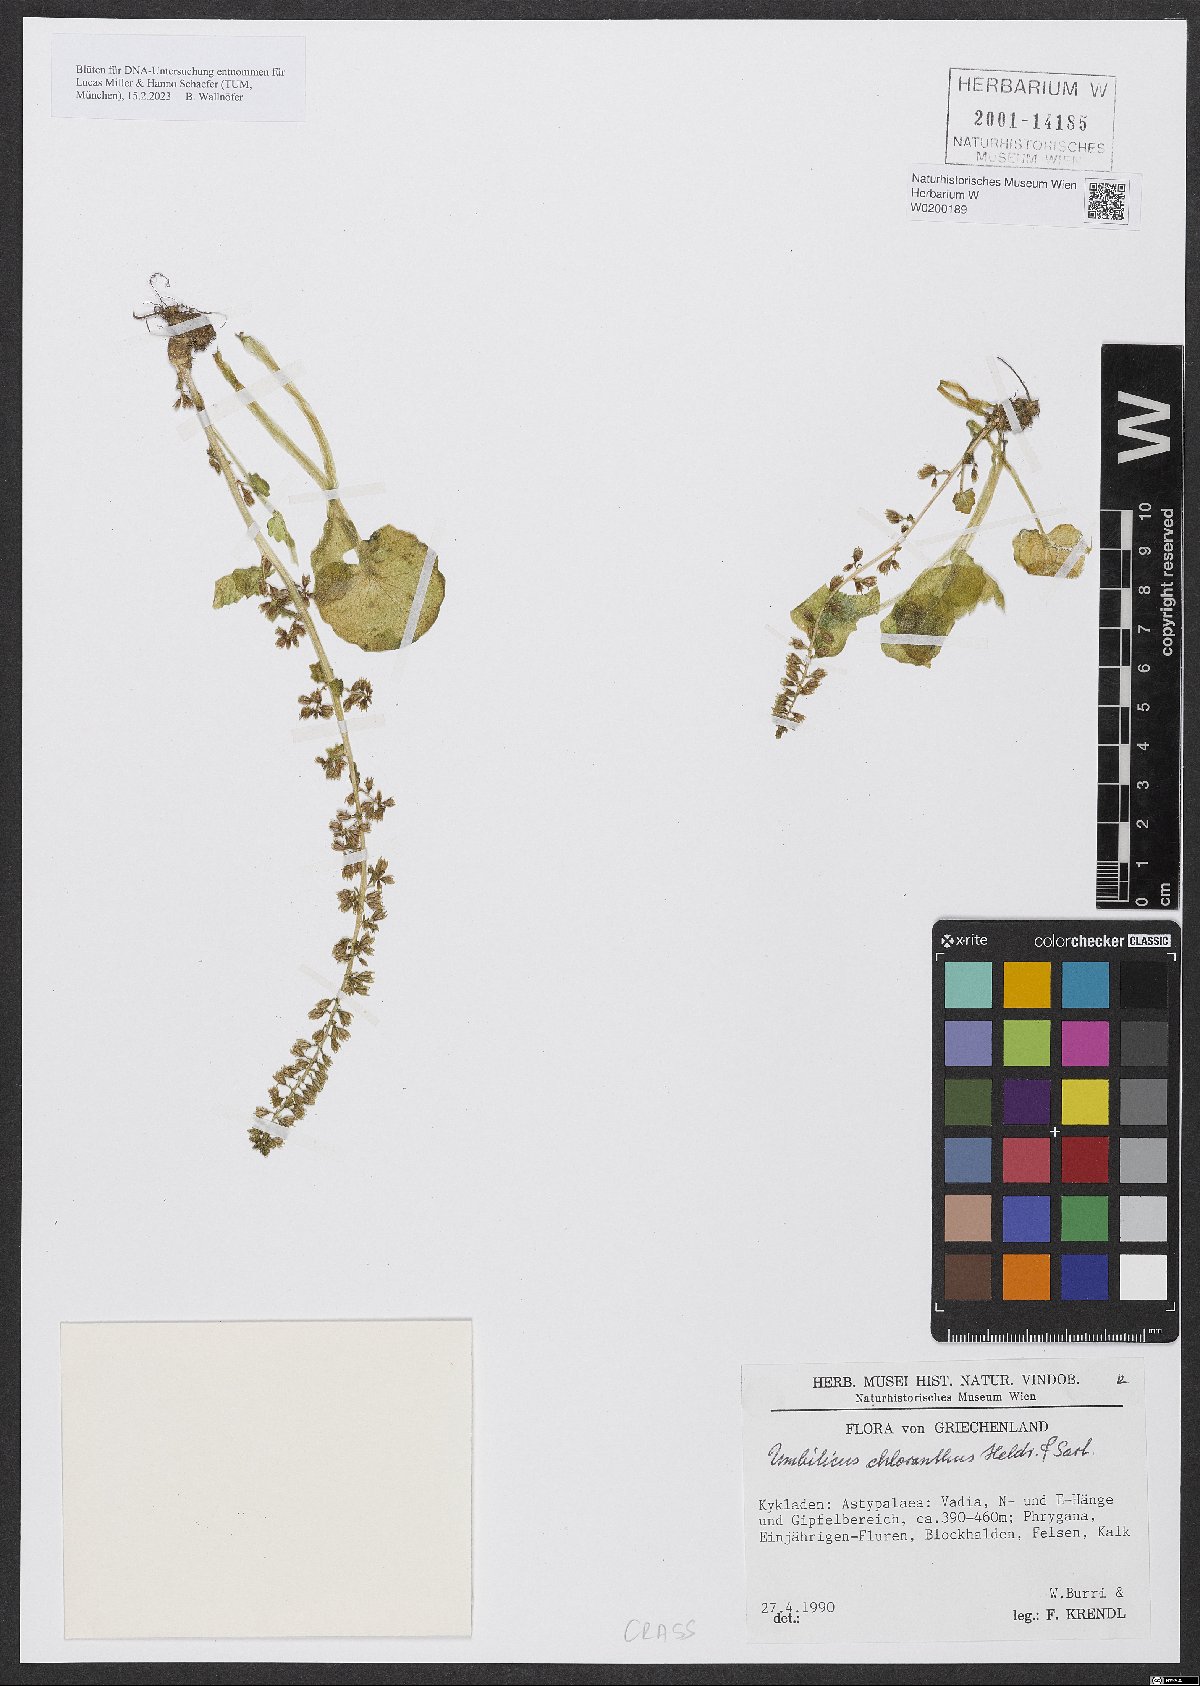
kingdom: Plantae
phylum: Tracheophyta
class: Magnoliopsida
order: Saxifragales
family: Crassulaceae
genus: Umbilicus
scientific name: Umbilicus chloranthus
